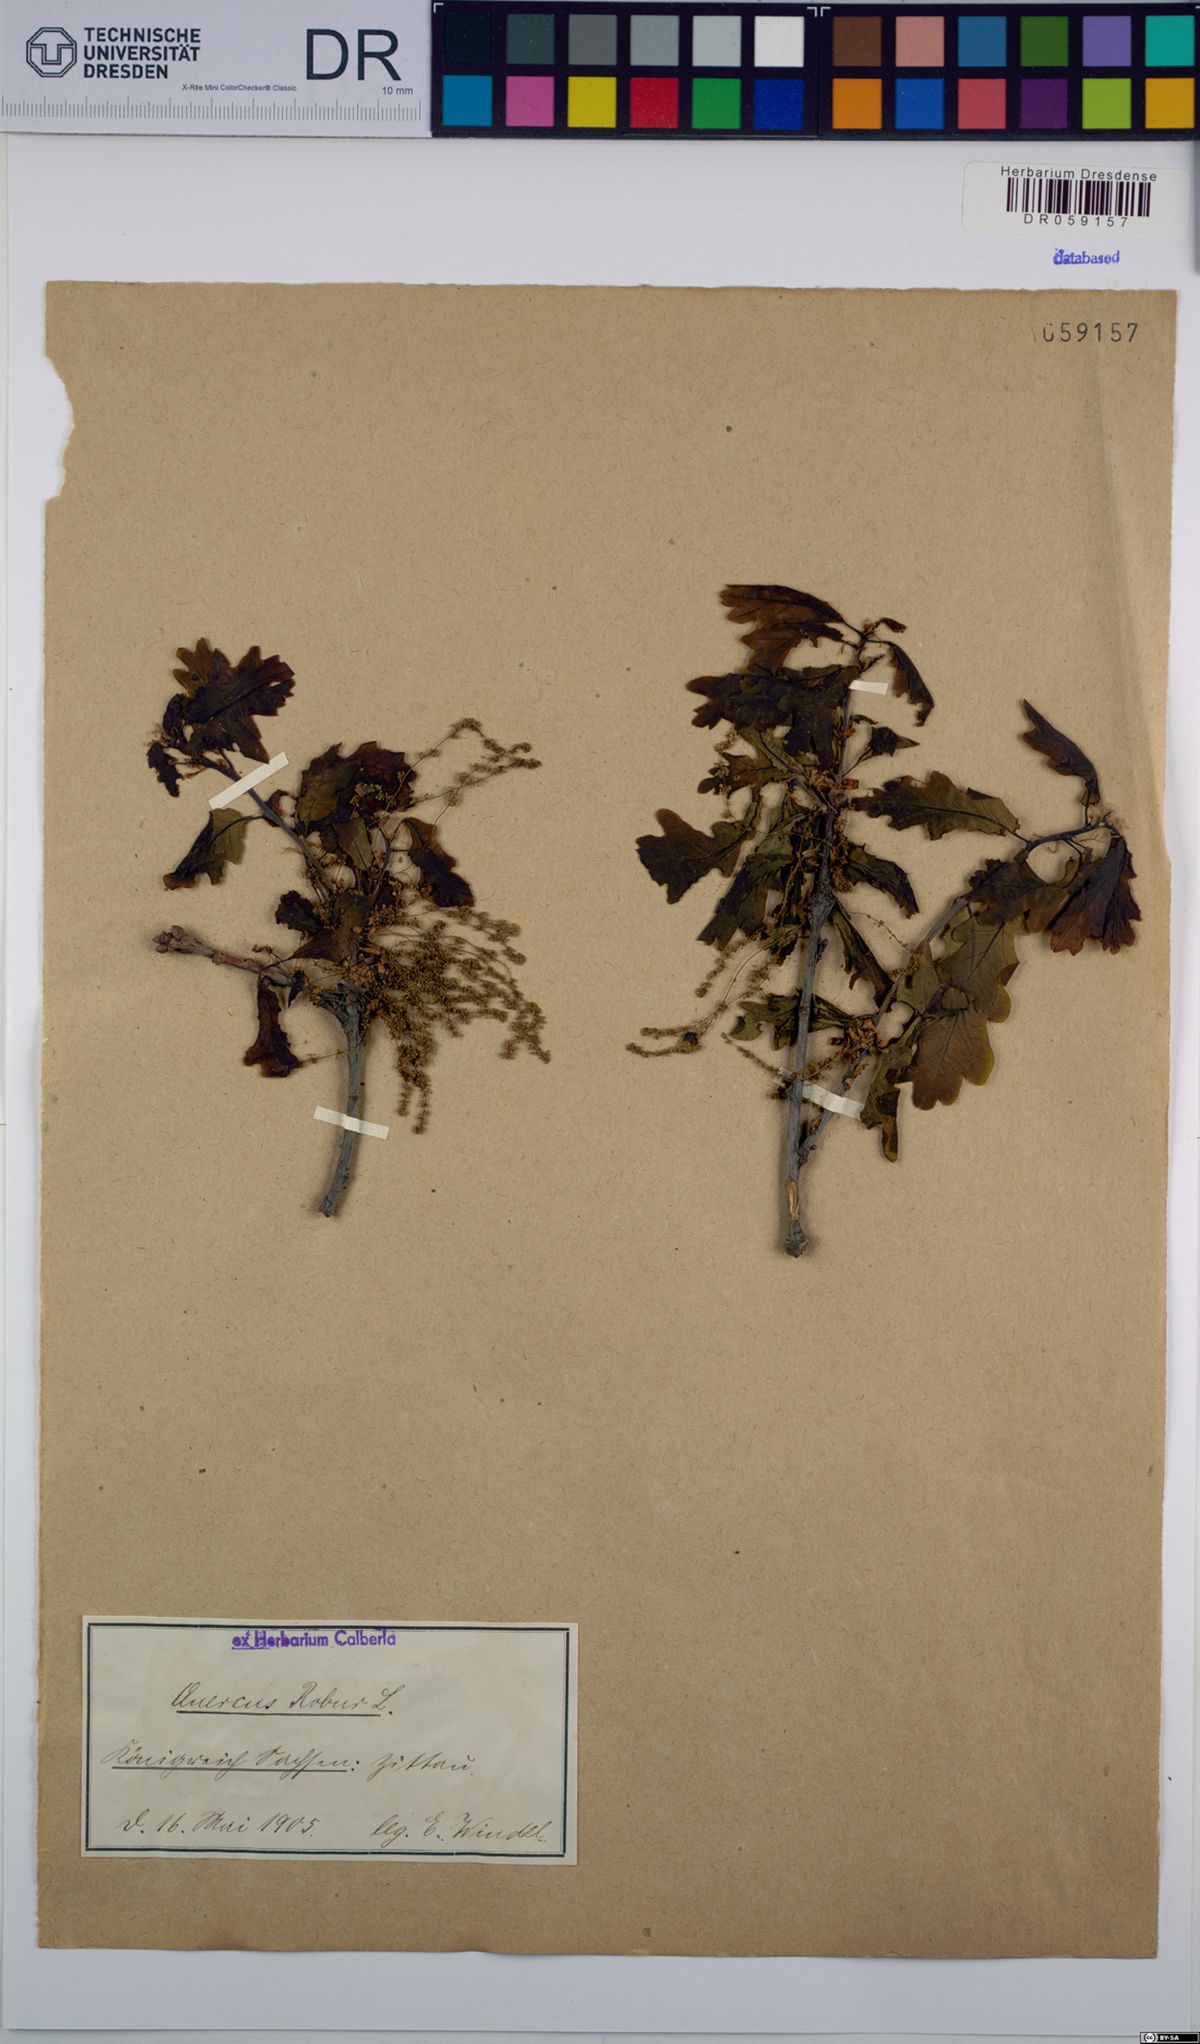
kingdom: Plantae
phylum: Tracheophyta
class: Magnoliopsida
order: Fagales
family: Fagaceae
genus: Quercus
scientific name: Quercus robur
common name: Pedunculate oak
